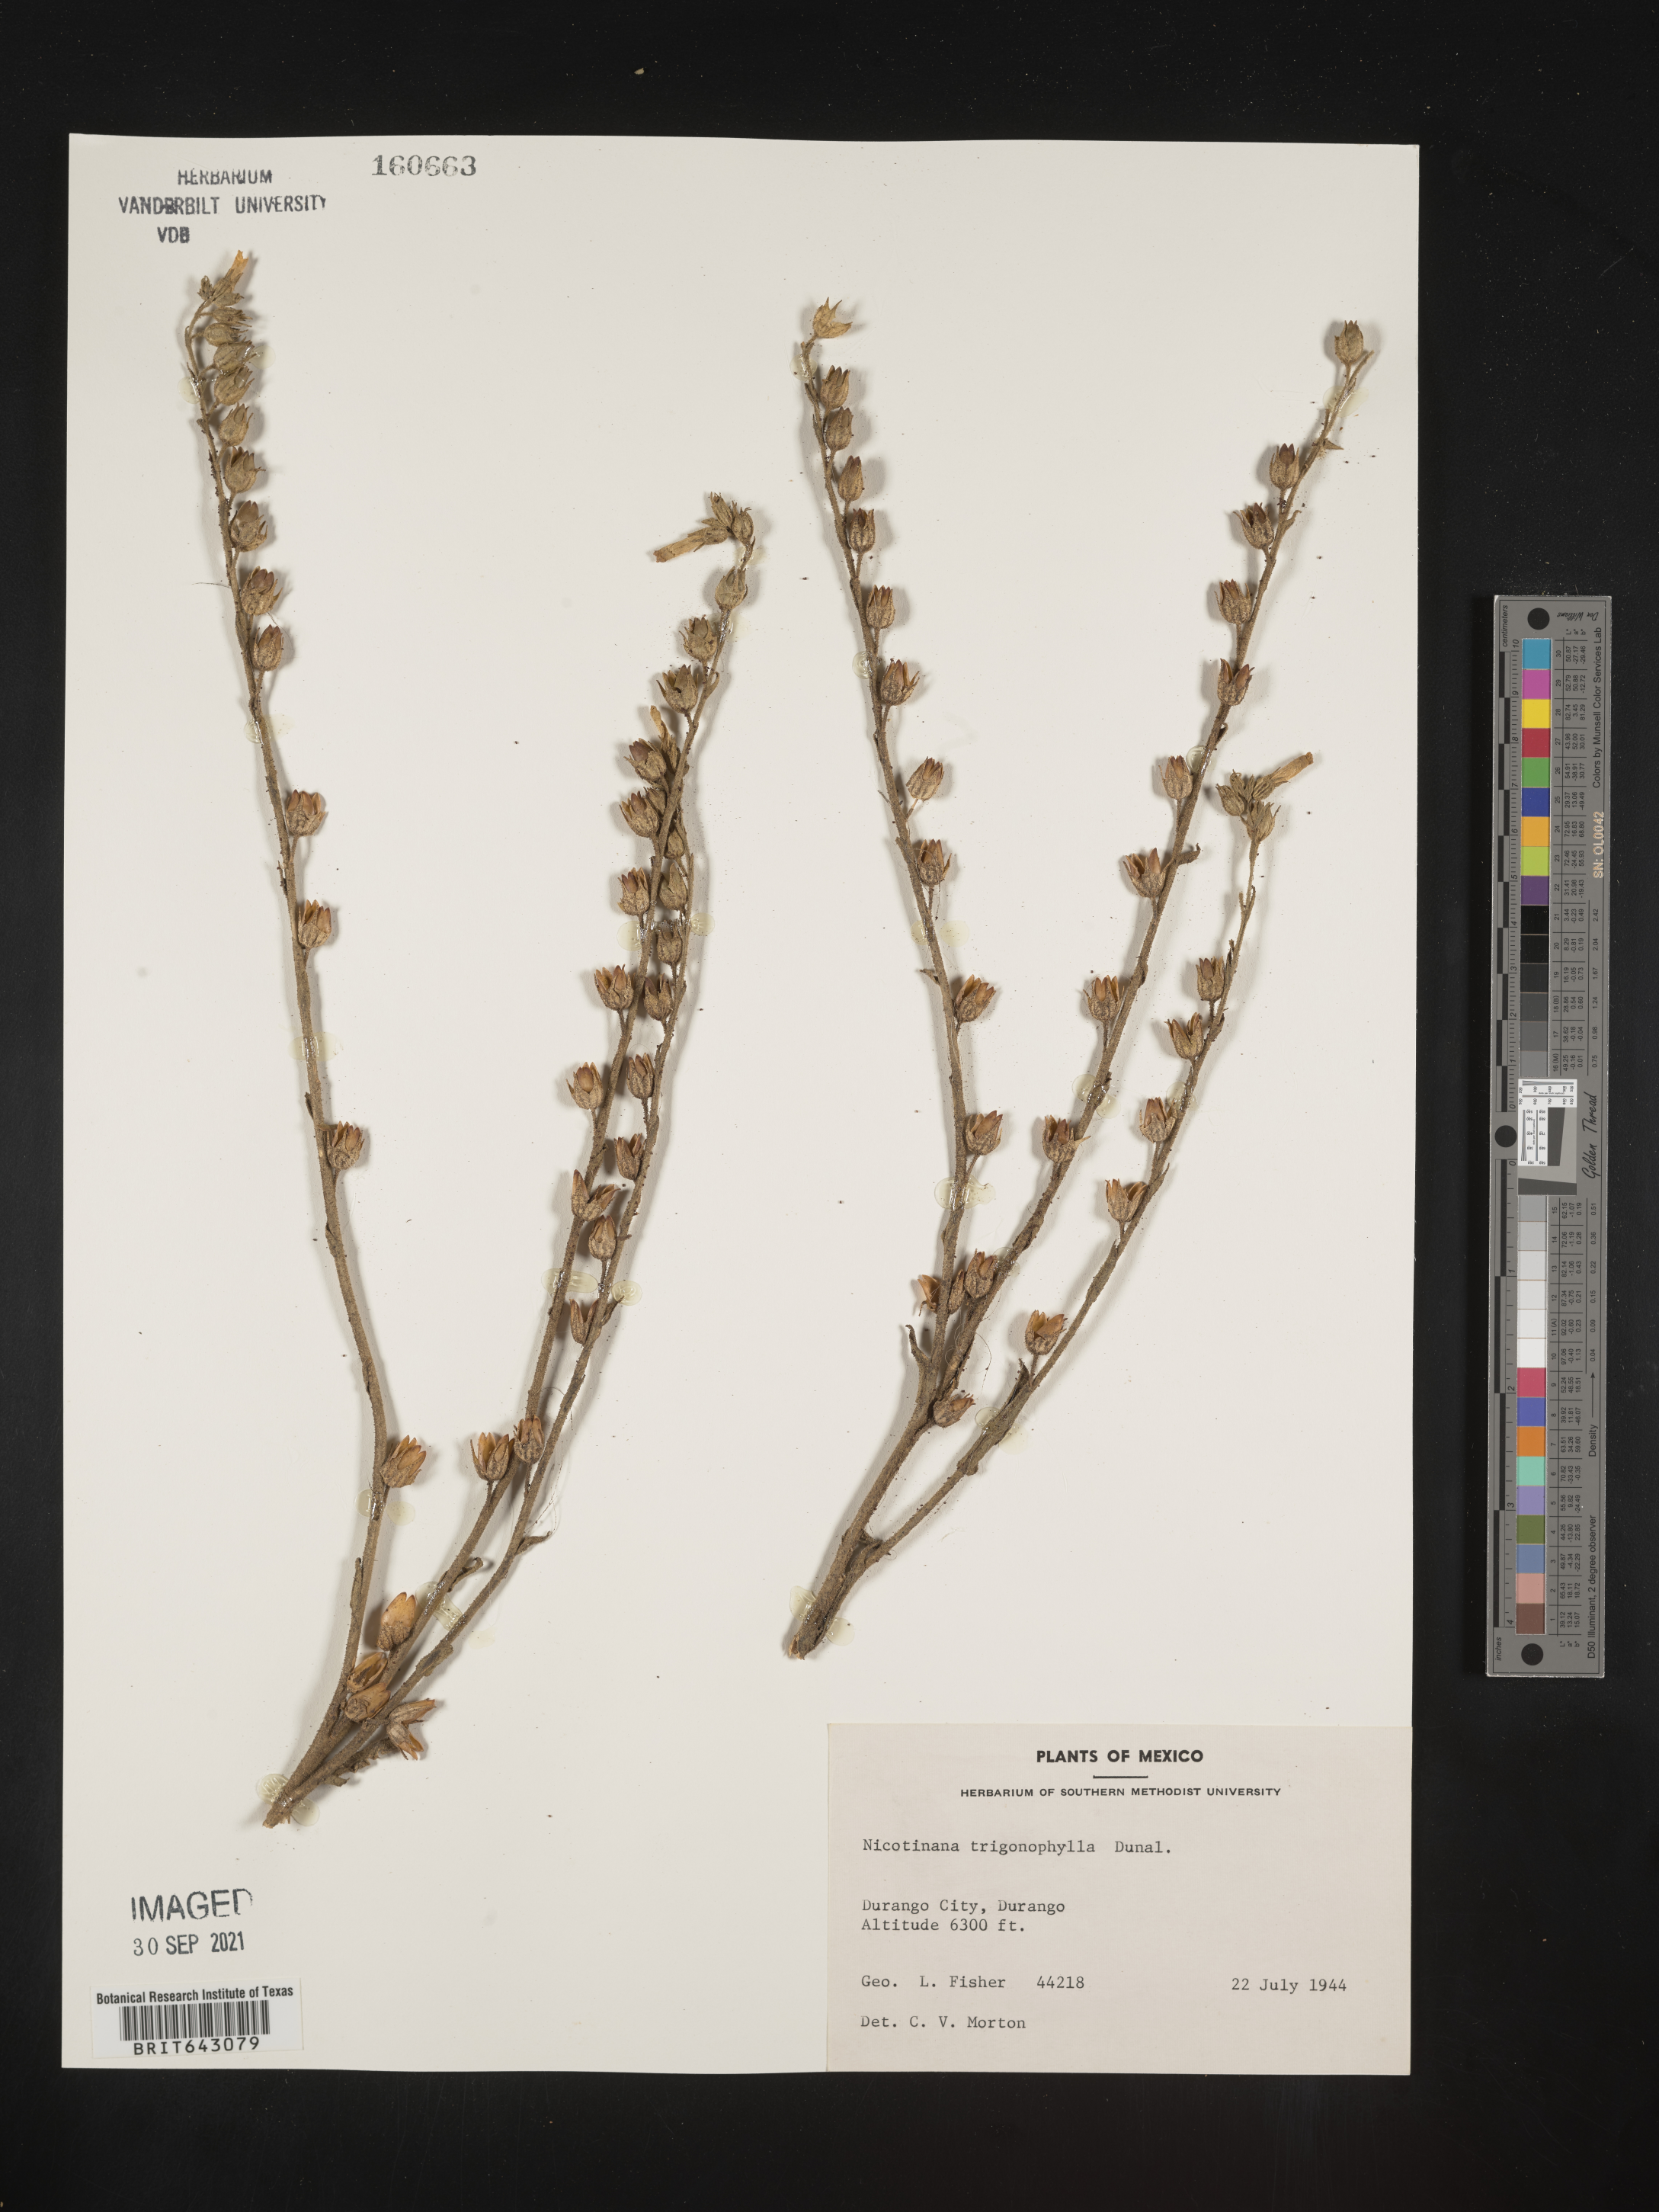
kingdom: Plantae
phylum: Tracheophyta
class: Magnoliopsida
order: Solanales
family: Solanaceae
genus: Nicotiana
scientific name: Nicotiana
